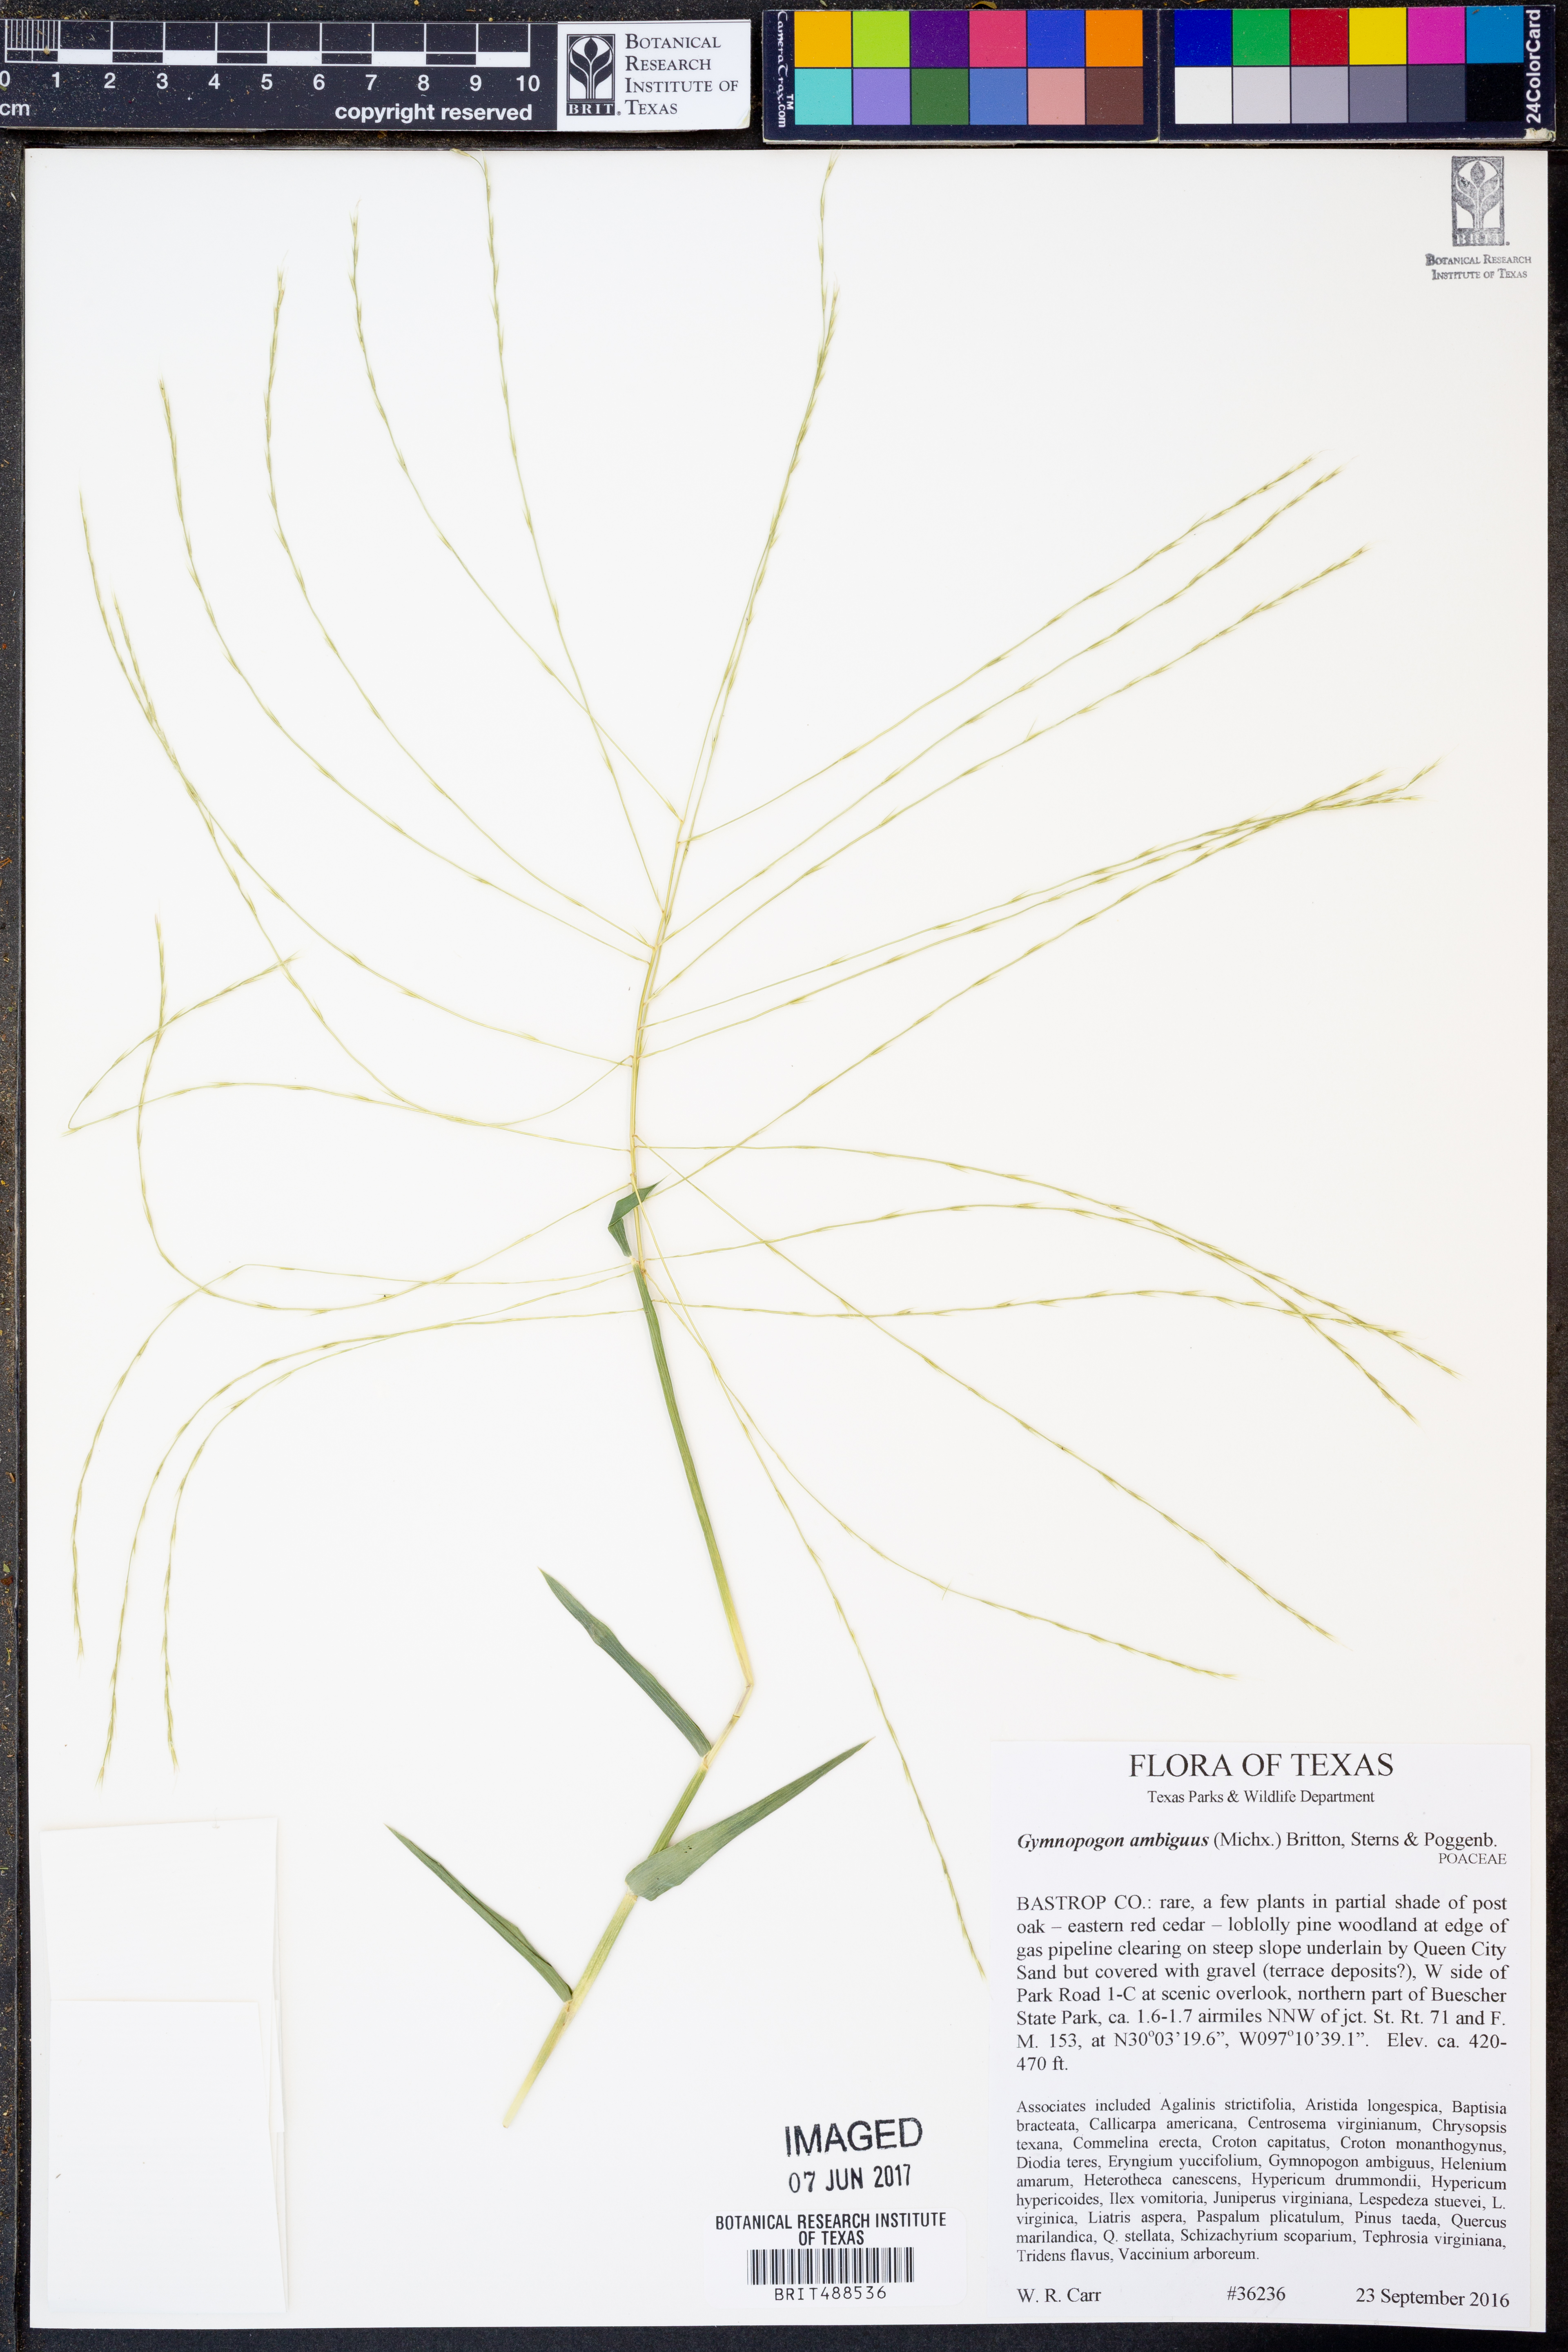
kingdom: Plantae
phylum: Tracheophyta
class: Liliopsida
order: Poales
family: Poaceae
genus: Gymnopogon
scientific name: Gymnopogon ambiguus
